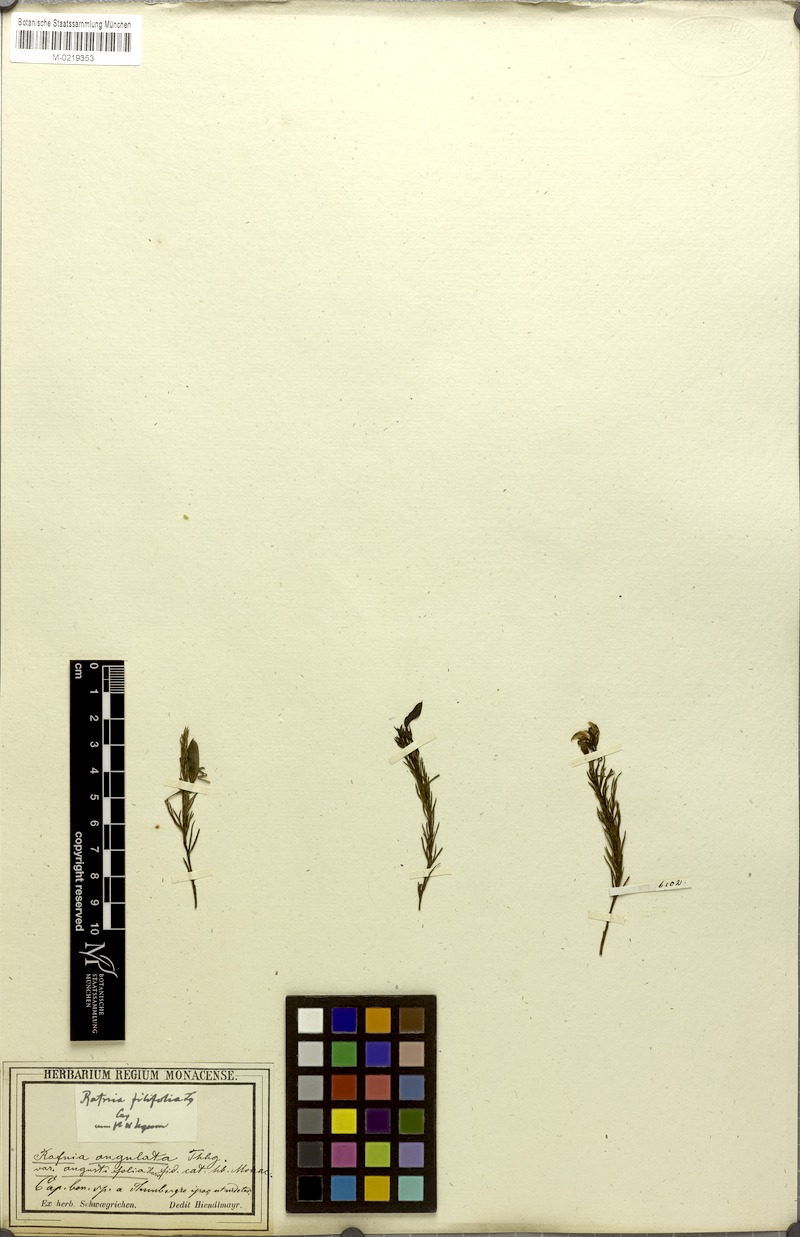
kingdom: Plantae
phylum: Tracheophyta
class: Magnoliopsida
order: Fabales
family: Fabaceae
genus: Rafnia
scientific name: Rafnia angulata
